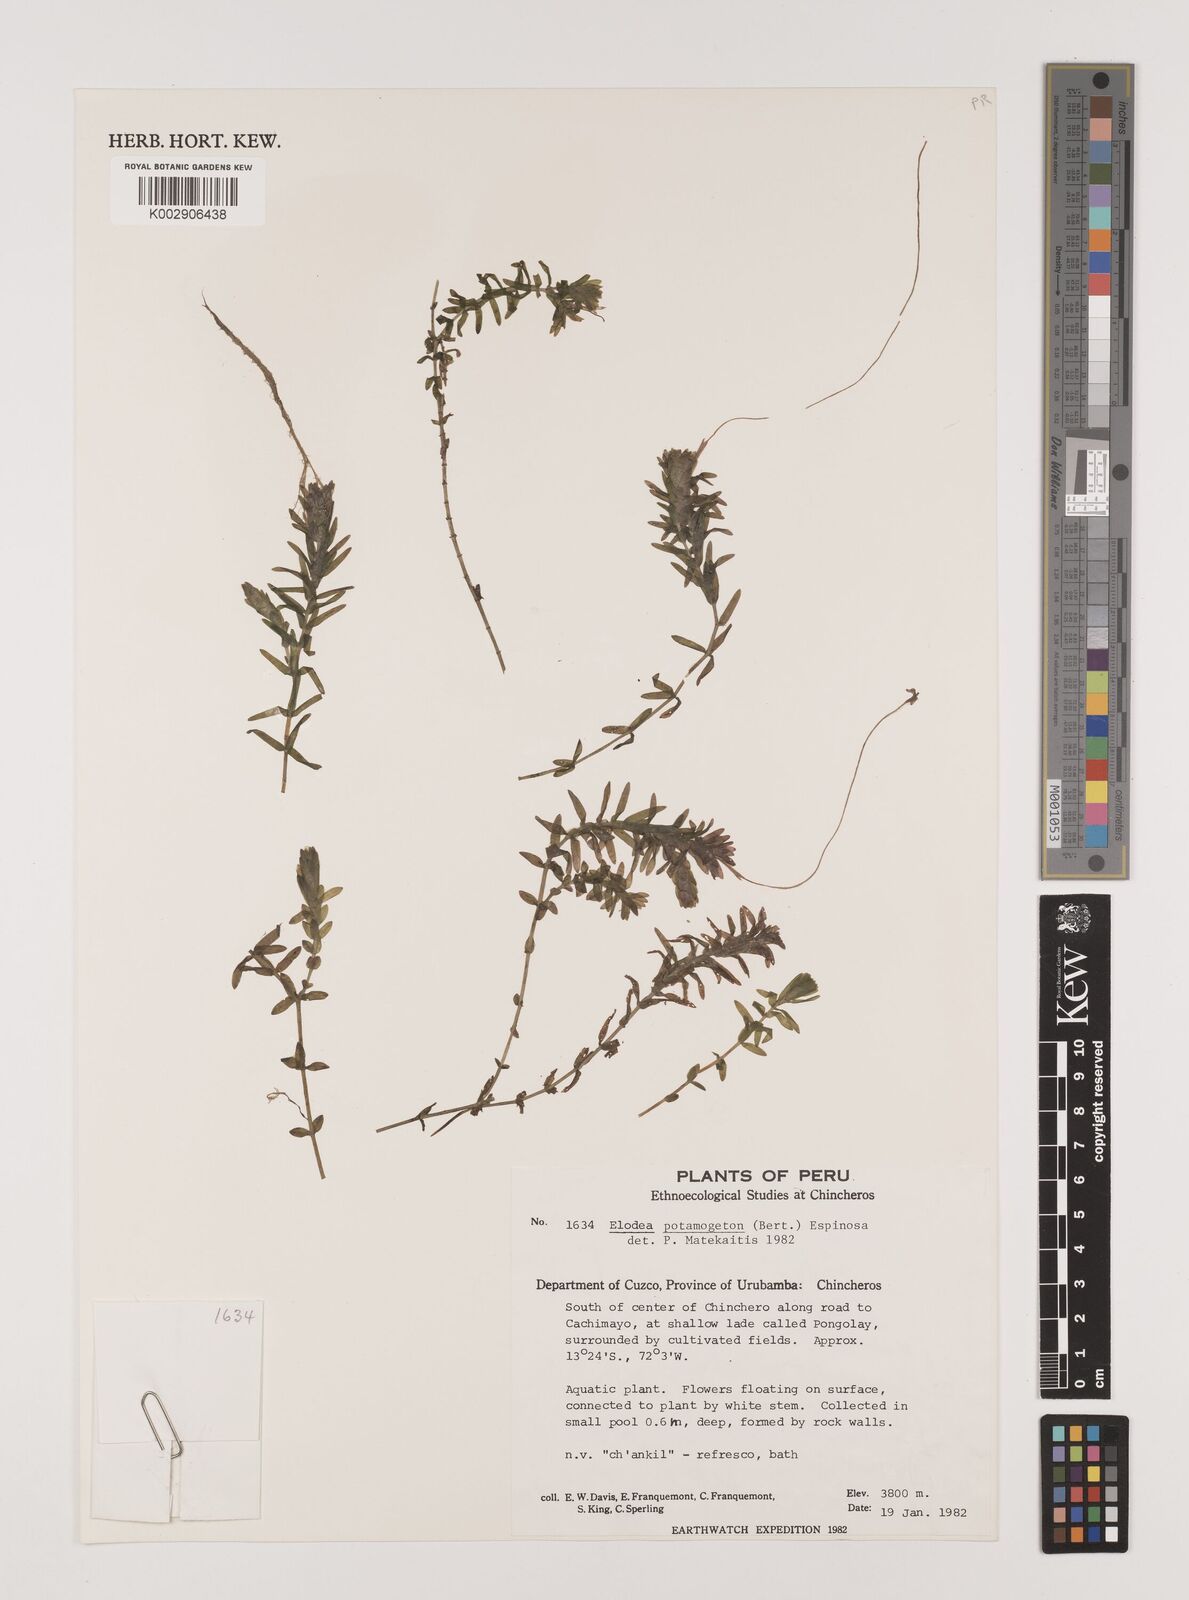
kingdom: Plantae
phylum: Tracheophyta
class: Liliopsida
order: Alismatales
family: Hydrocharitaceae
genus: Elodea
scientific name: Elodea potamogeton
